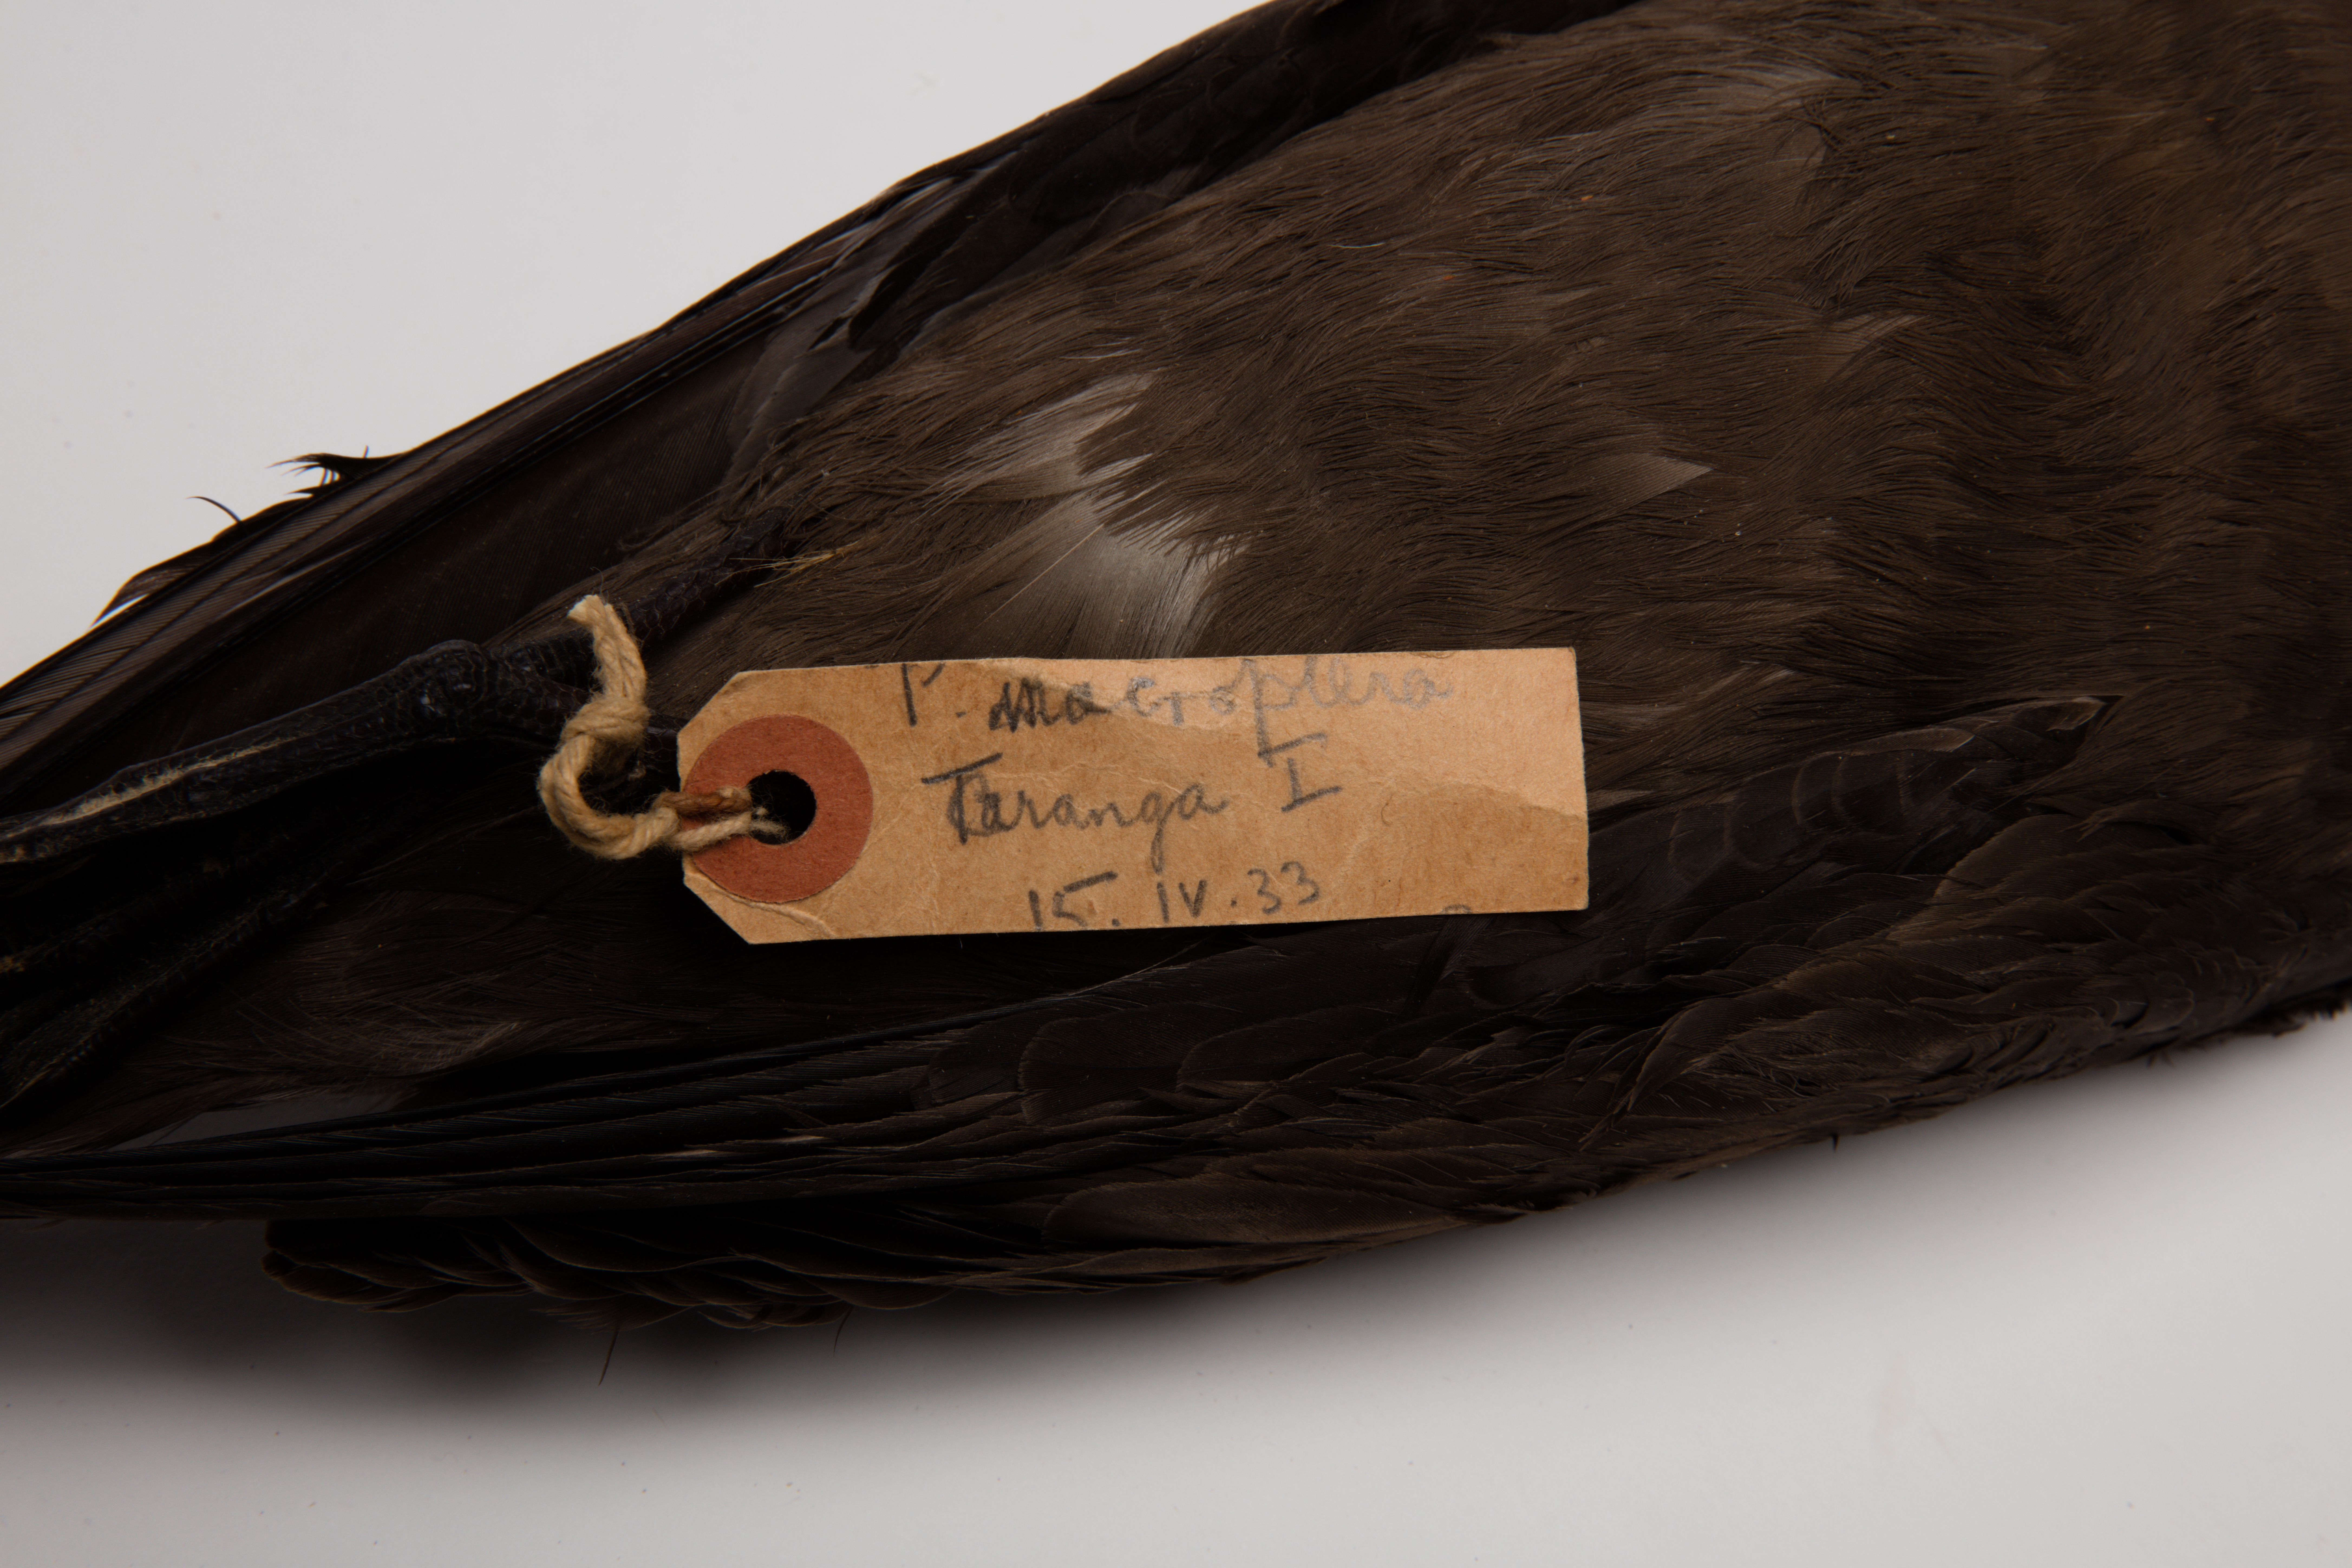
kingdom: Animalia
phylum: Chordata
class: Aves
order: Procellariiformes
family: Procellariidae
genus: Pterodroma
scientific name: Pterodroma macroptera
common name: Great-winged petrel
